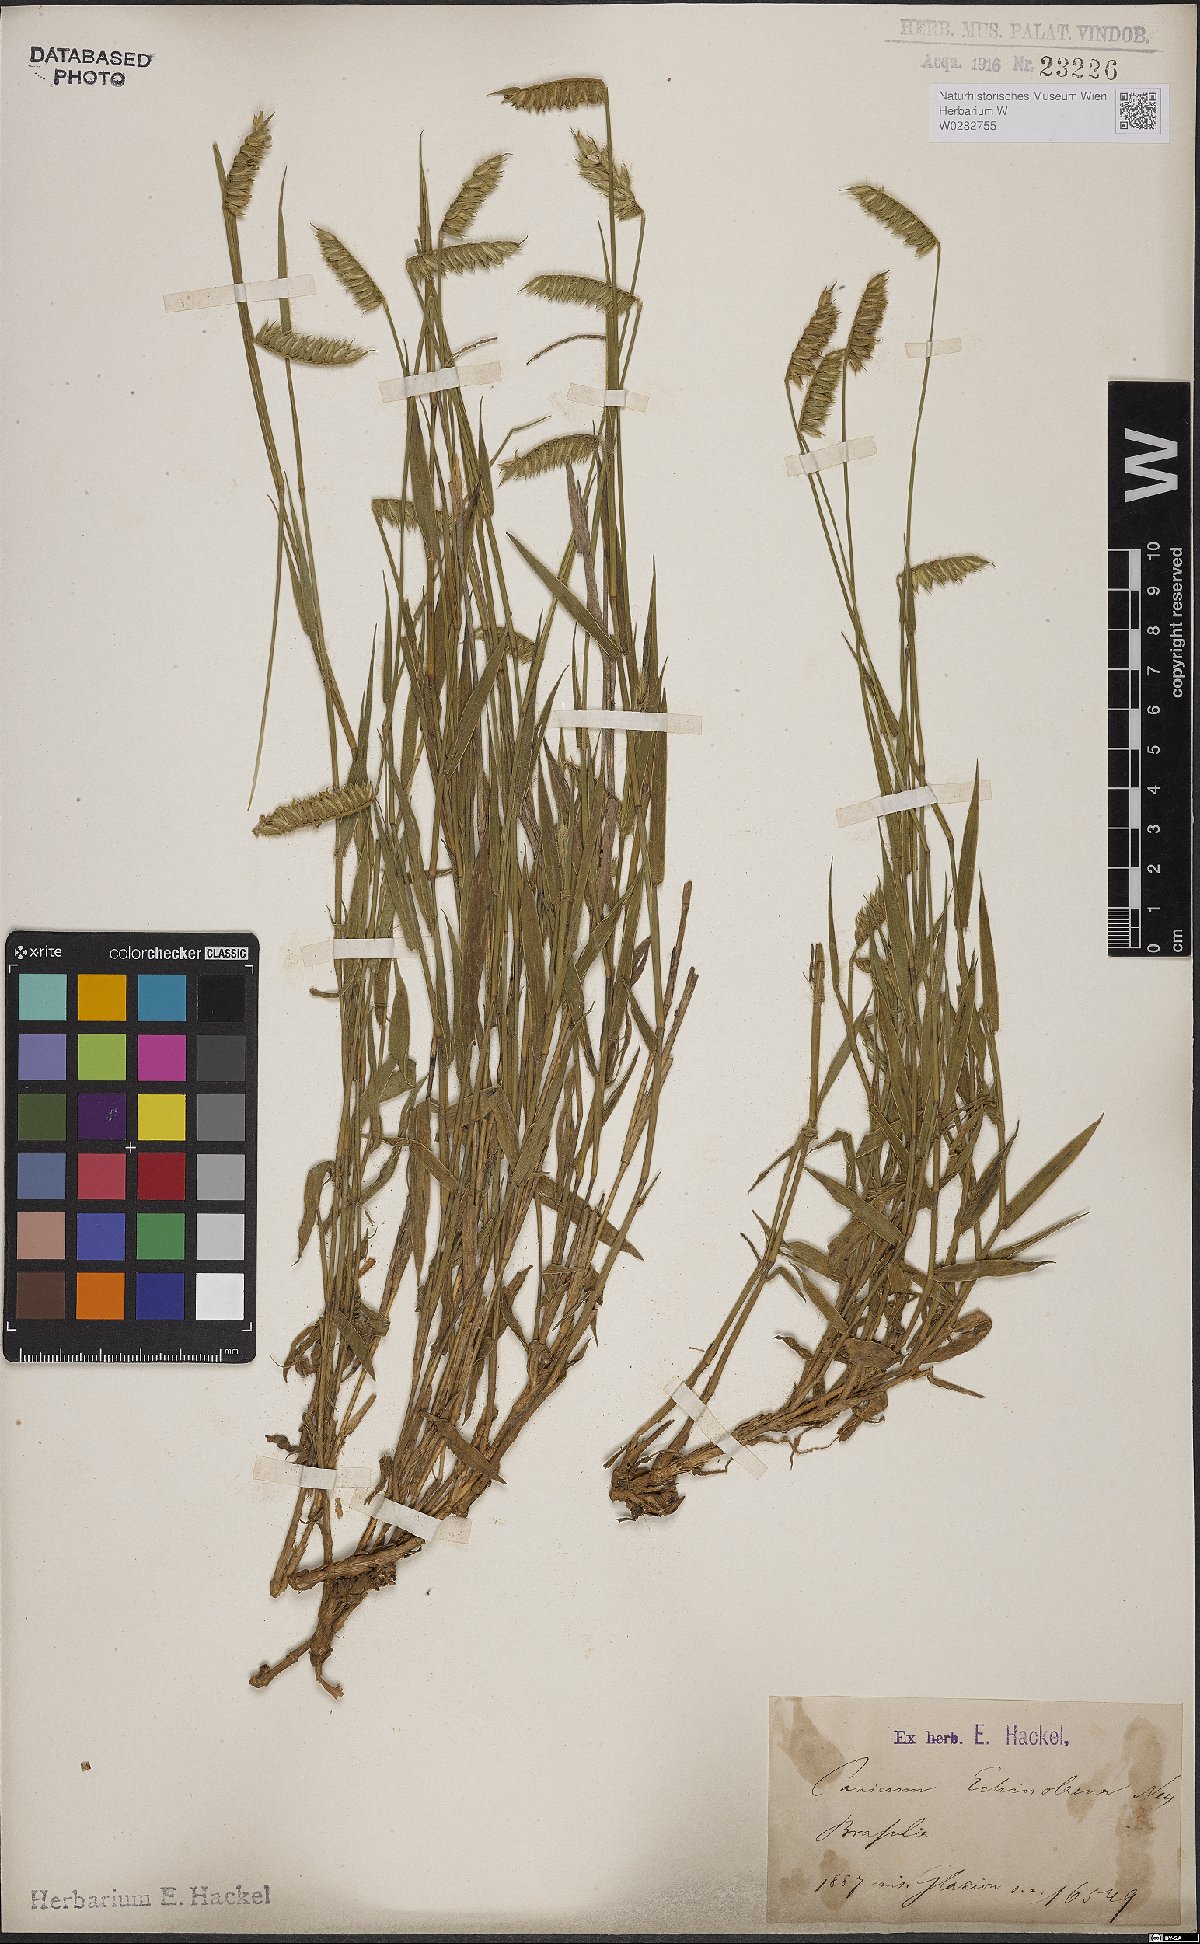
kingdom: Plantae
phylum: Tracheophyta
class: Liliopsida
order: Poales
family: Poaceae
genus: Echinolaena
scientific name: Echinolaena inflexa
